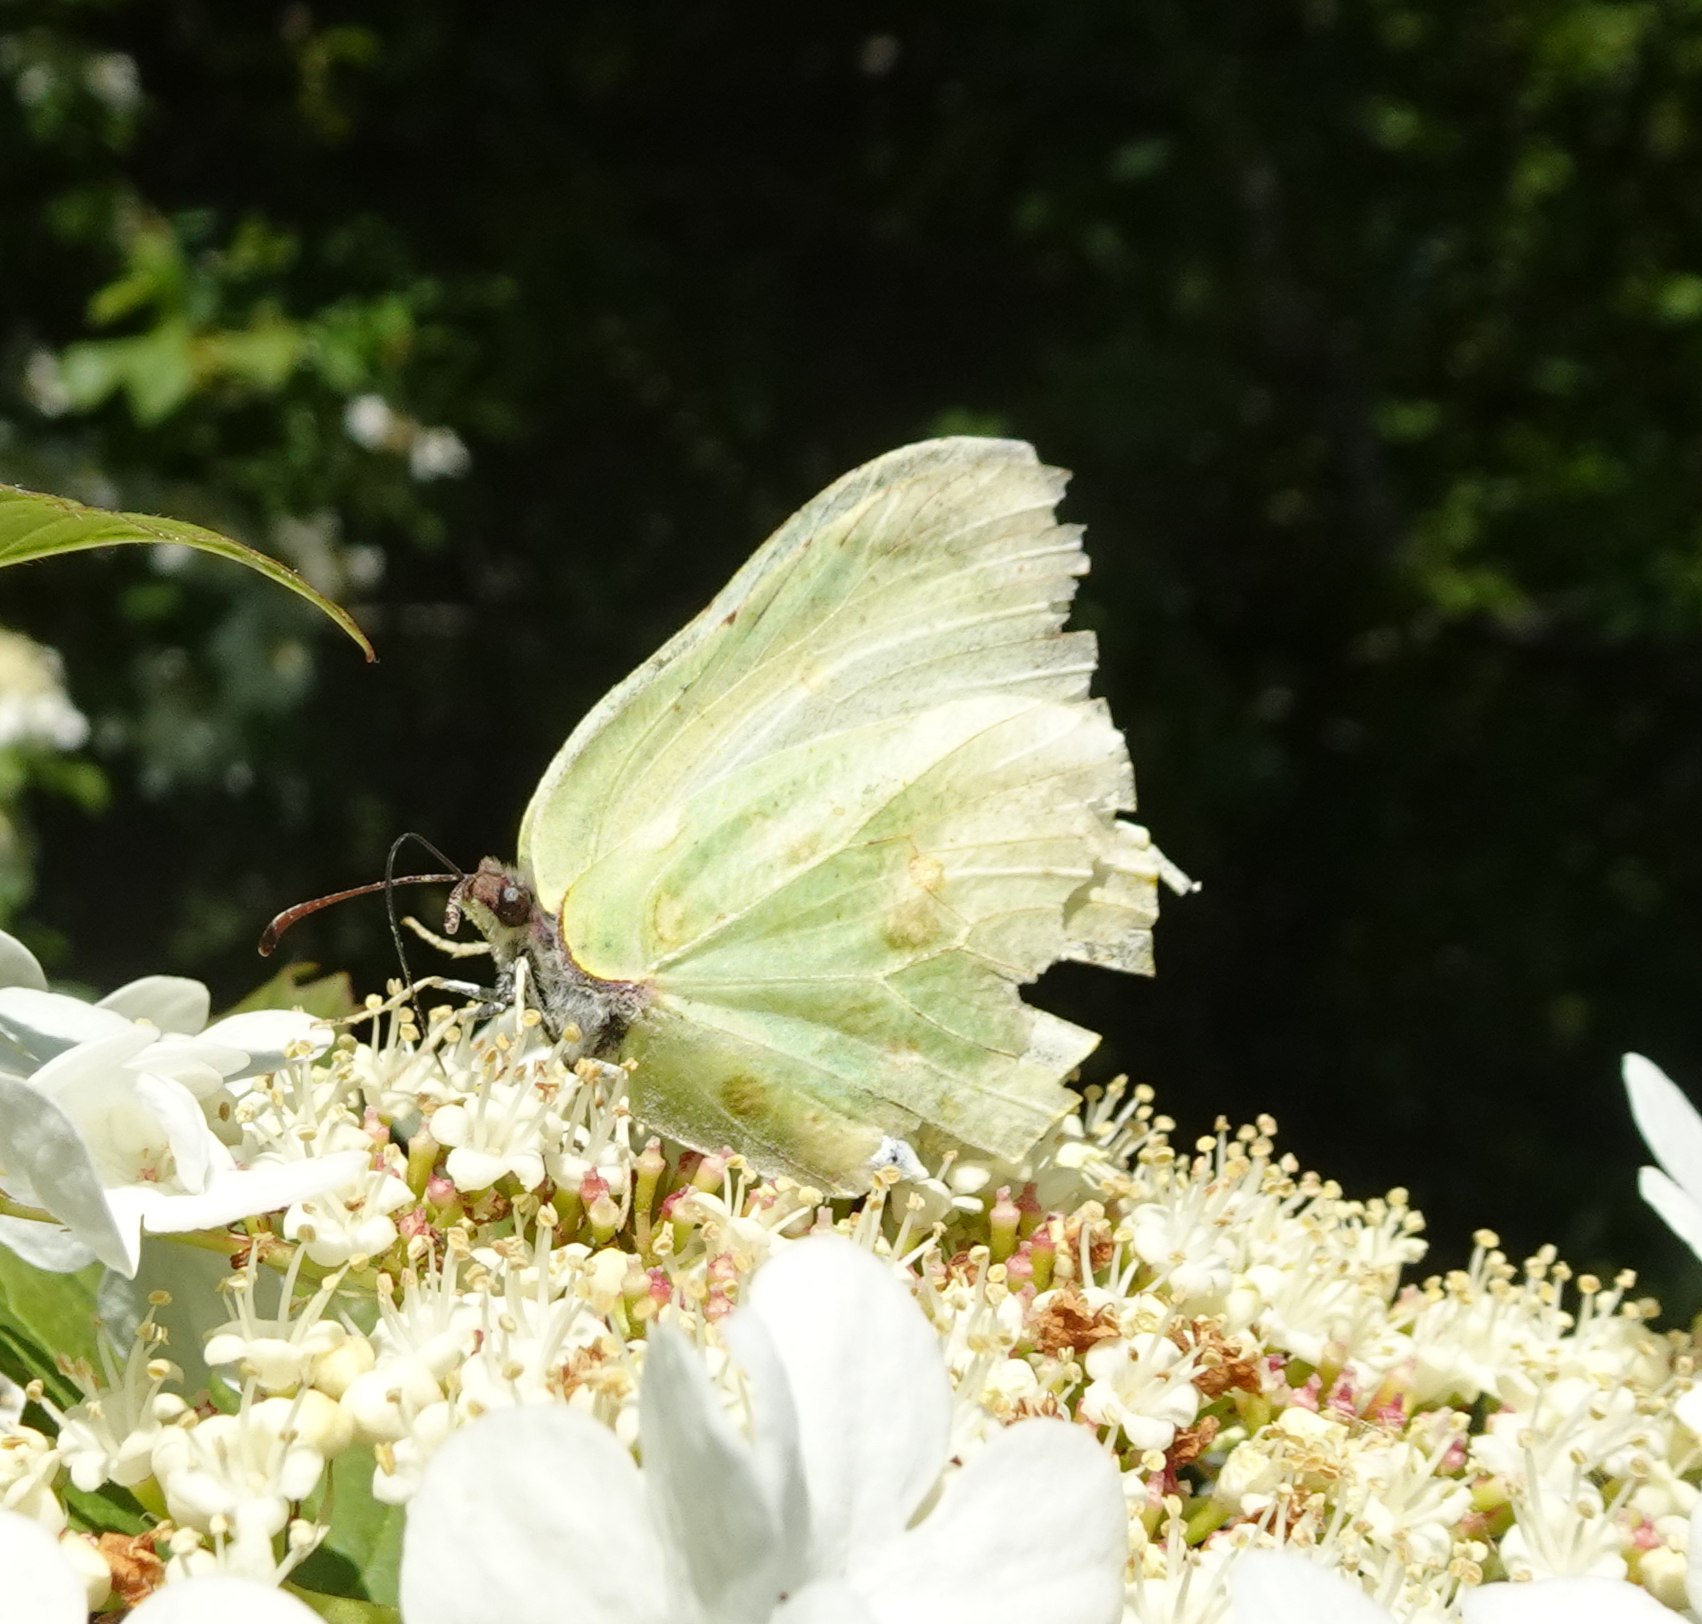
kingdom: Animalia
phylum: Arthropoda
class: Insecta
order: Lepidoptera
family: Pieridae
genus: Gonepteryx
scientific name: Gonepteryx rhamni
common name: Citronsommerfugl
